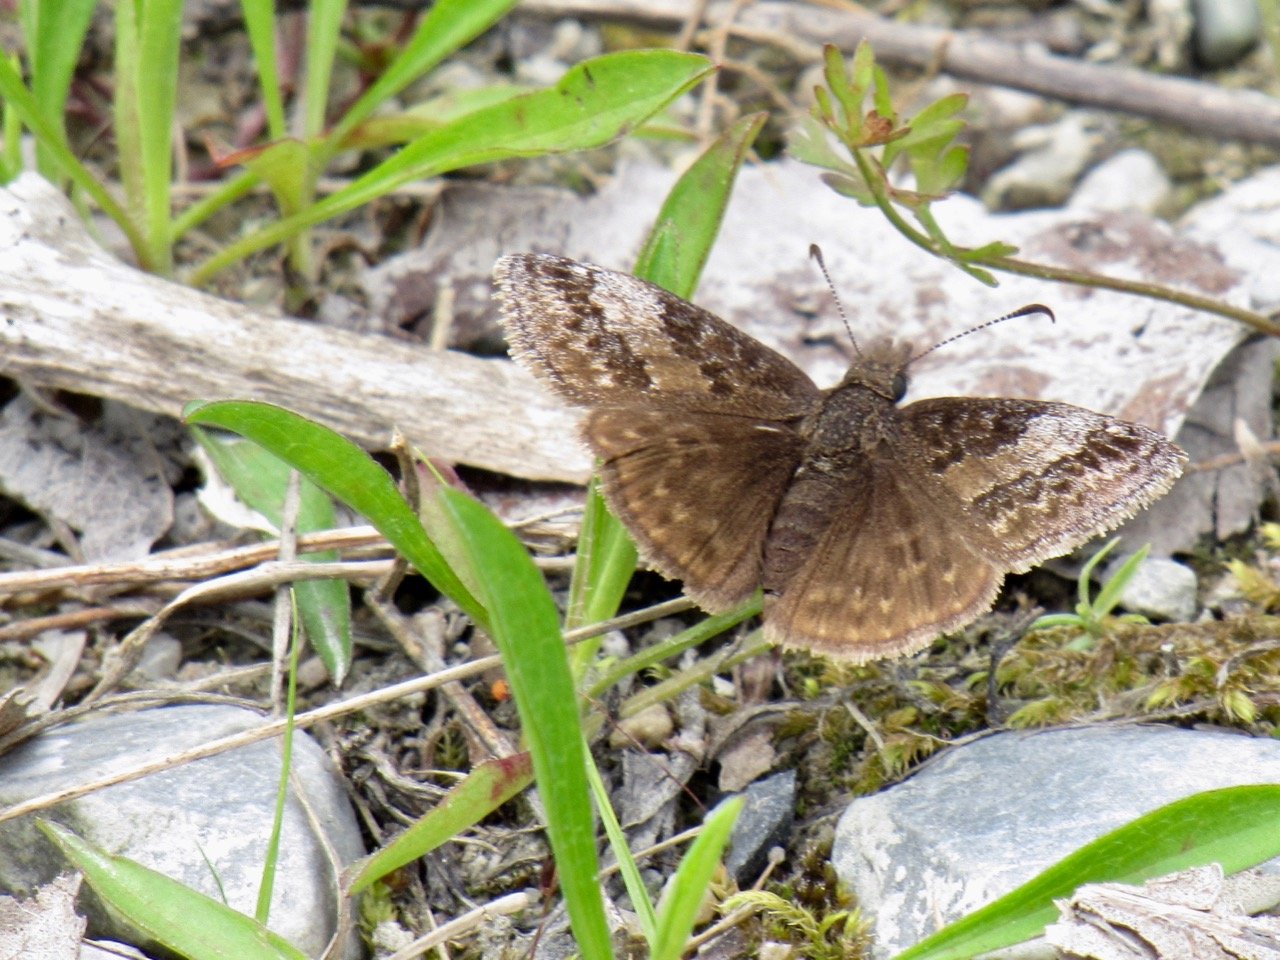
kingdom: Animalia
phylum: Arthropoda
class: Insecta
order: Lepidoptera
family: Hesperiidae
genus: Erynnis
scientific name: Erynnis icelus
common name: Dreamy Duskywing
